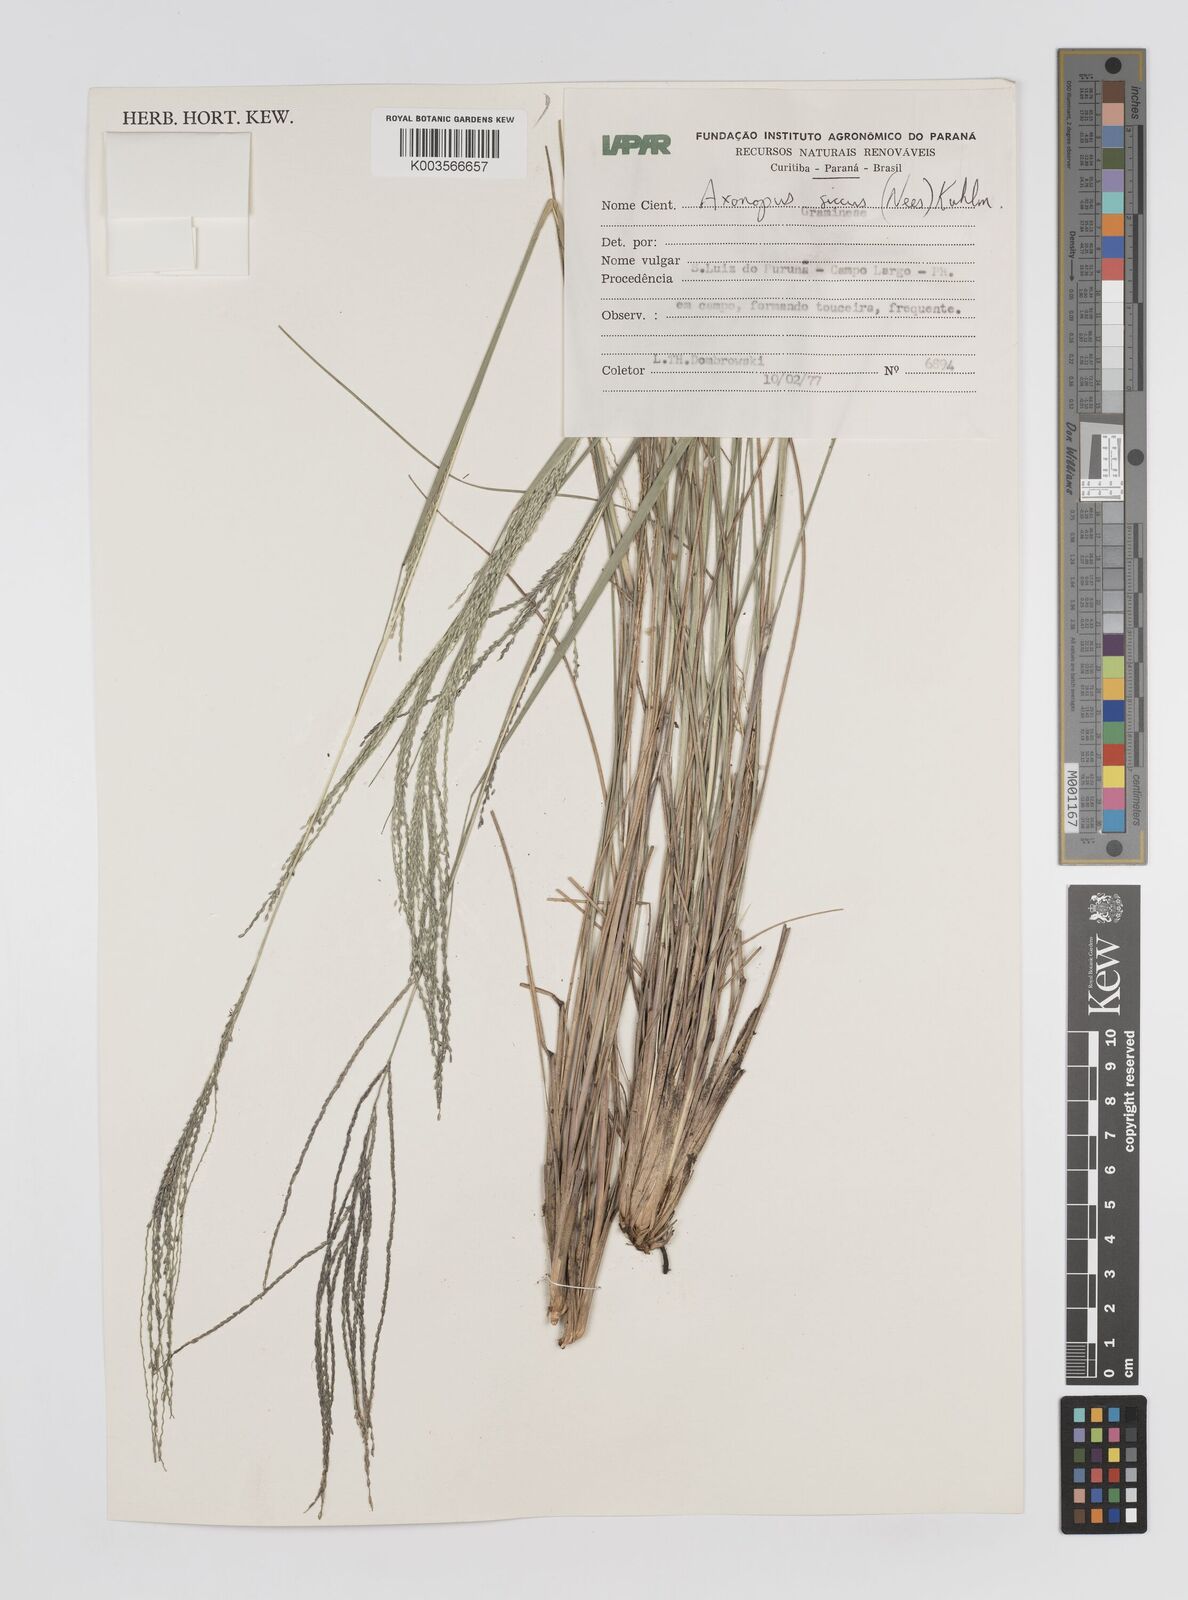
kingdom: Plantae
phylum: Tracheophyta
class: Liliopsida
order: Poales
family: Poaceae
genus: Axonopus
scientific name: Axonopus siccus
